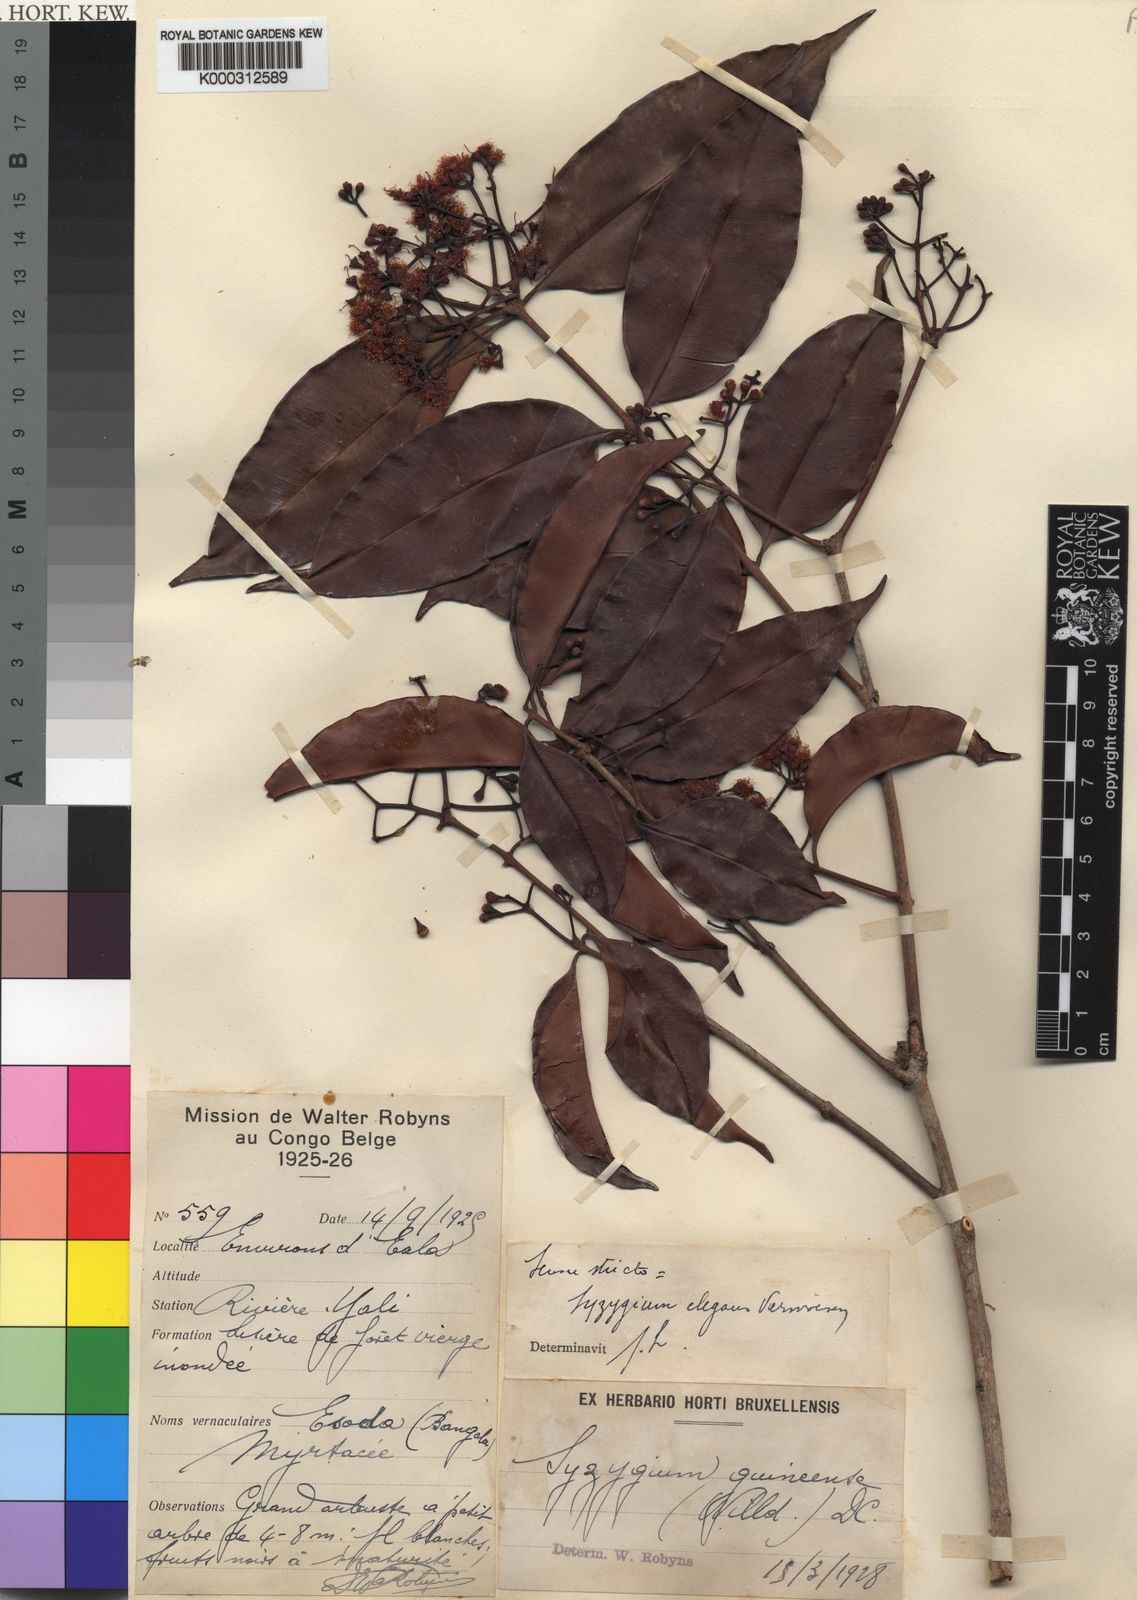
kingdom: Plantae
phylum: Tracheophyta
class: Magnoliopsida
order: Myrtales
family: Myrtaceae
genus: Syzygium
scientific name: Syzygium owariense
